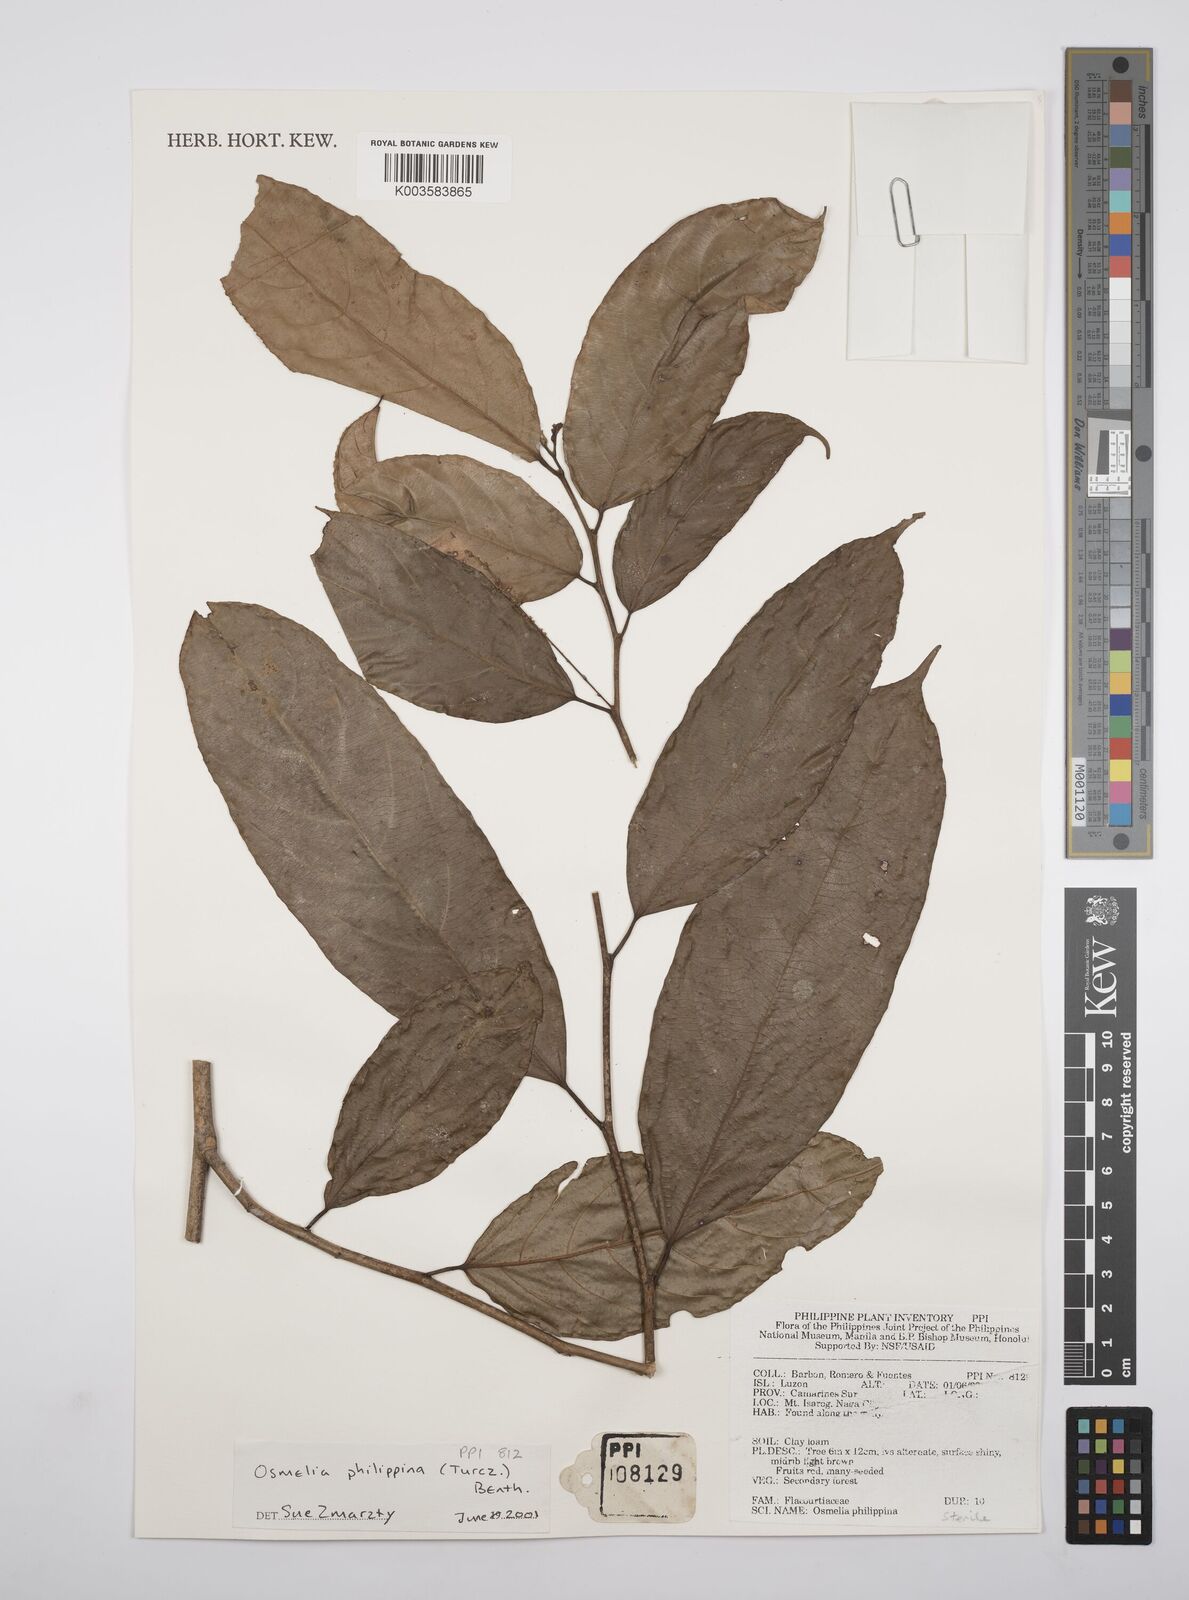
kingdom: Plantae
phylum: Tracheophyta
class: Magnoliopsida
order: Malpighiales
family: Salicaceae
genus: Osmelia
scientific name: Osmelia philippina
